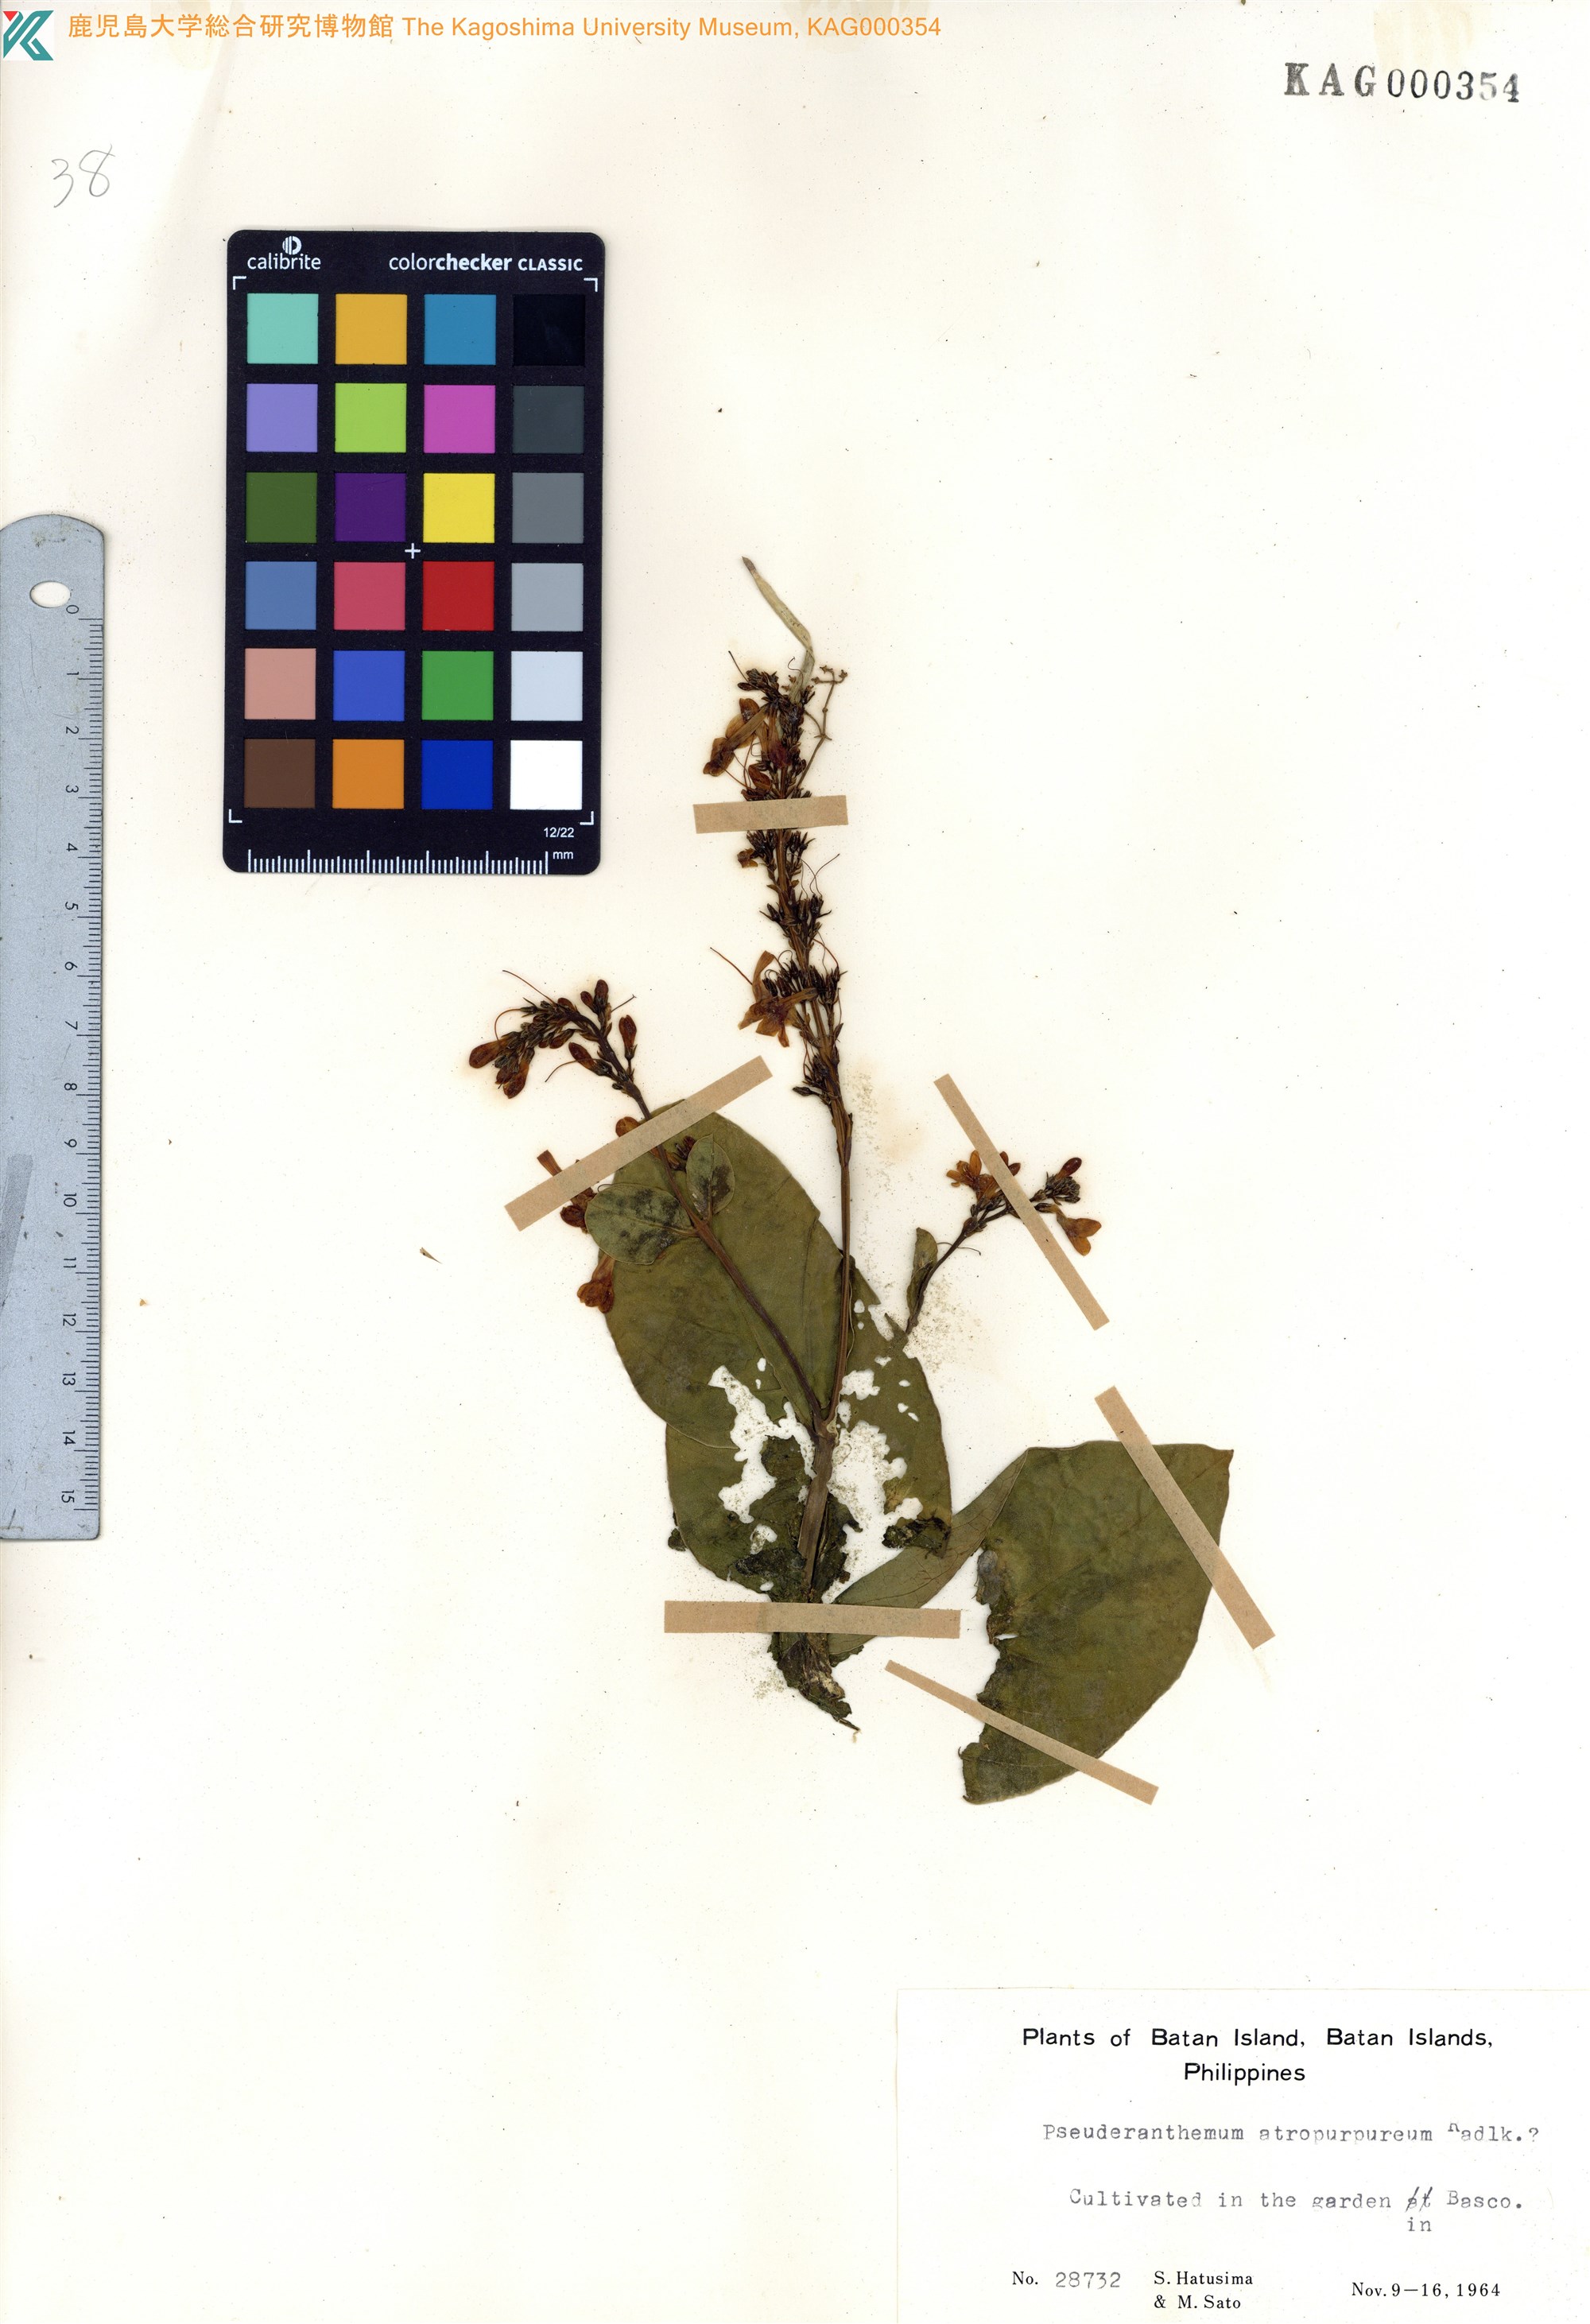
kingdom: Plantae
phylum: Tracheophyta
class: Magnoliopsida
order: Lamiales
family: Acanthaceae
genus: Pseuderanthemum
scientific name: Pseuderanthemum maculatum
